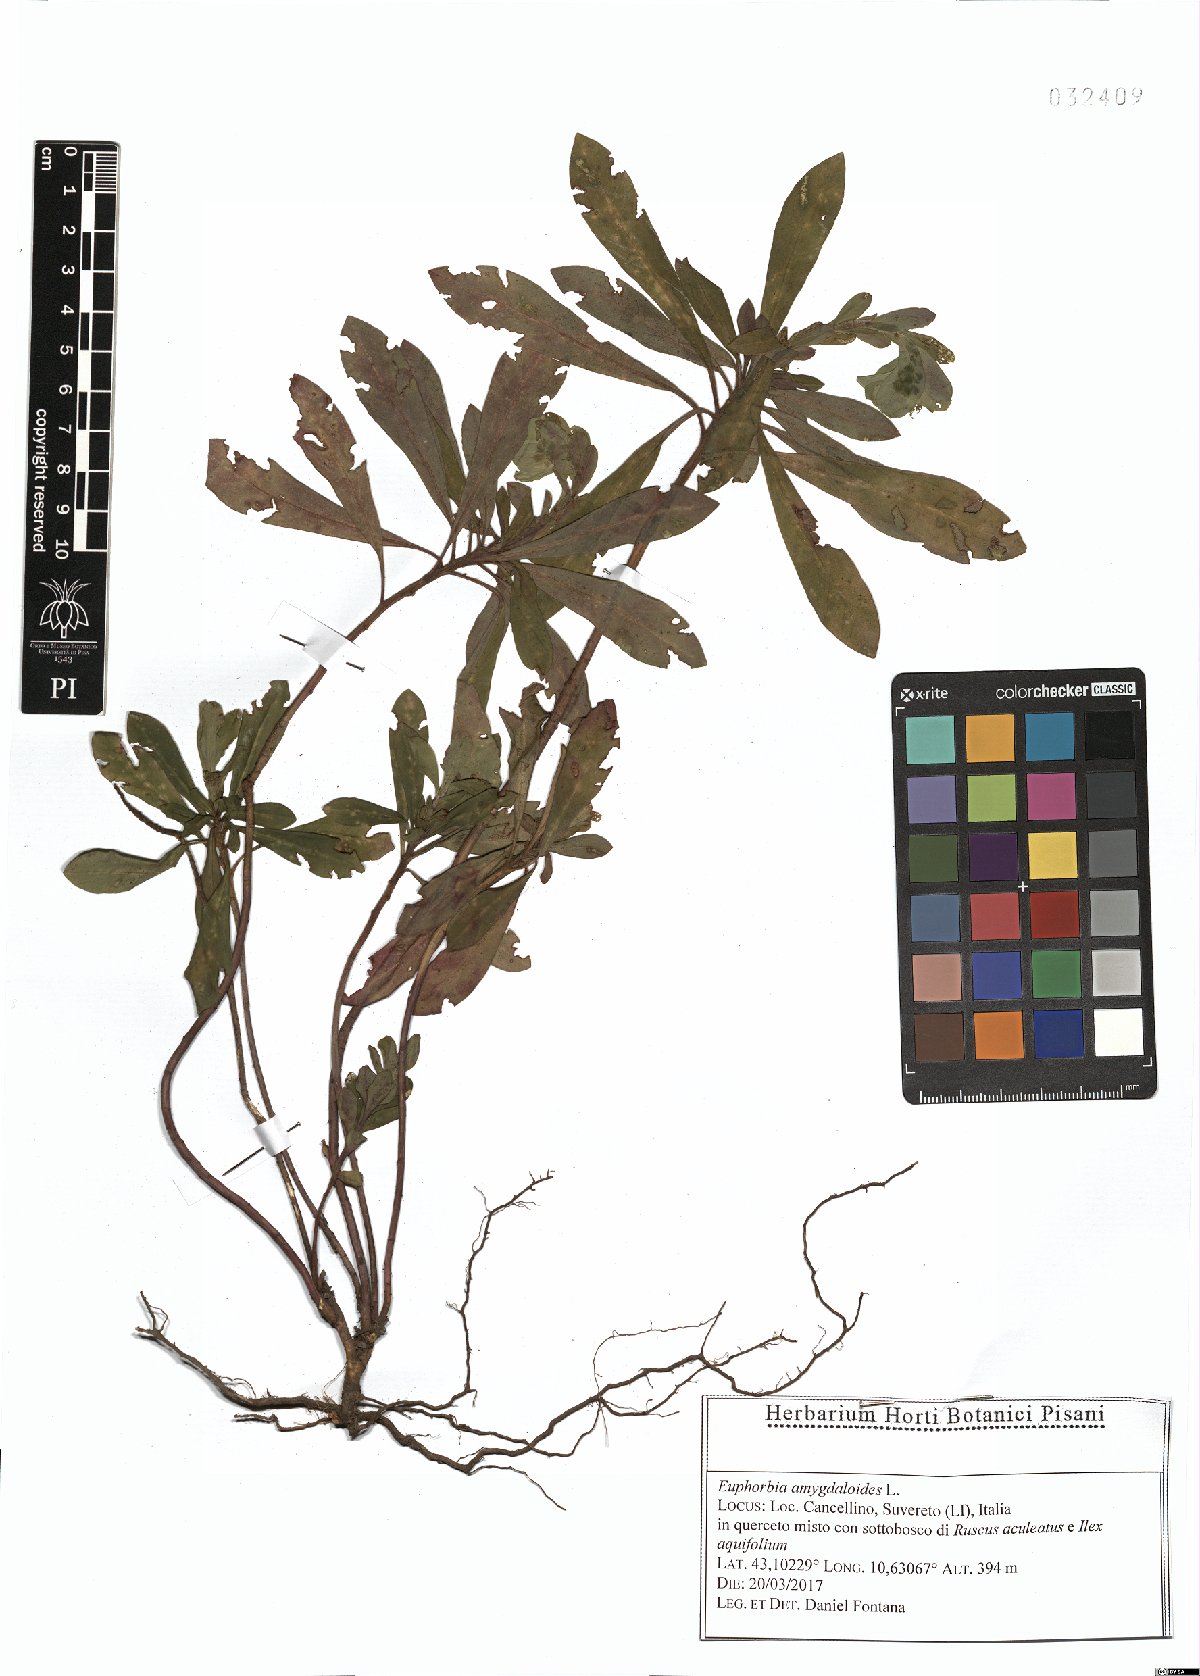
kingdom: Plantae
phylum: Tracheophyta
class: Magnoliopsida
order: Malpighiales
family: Euphorbiaceae
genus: Euphorbia
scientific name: Euphorbia amygdaloides
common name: Wood spurge
